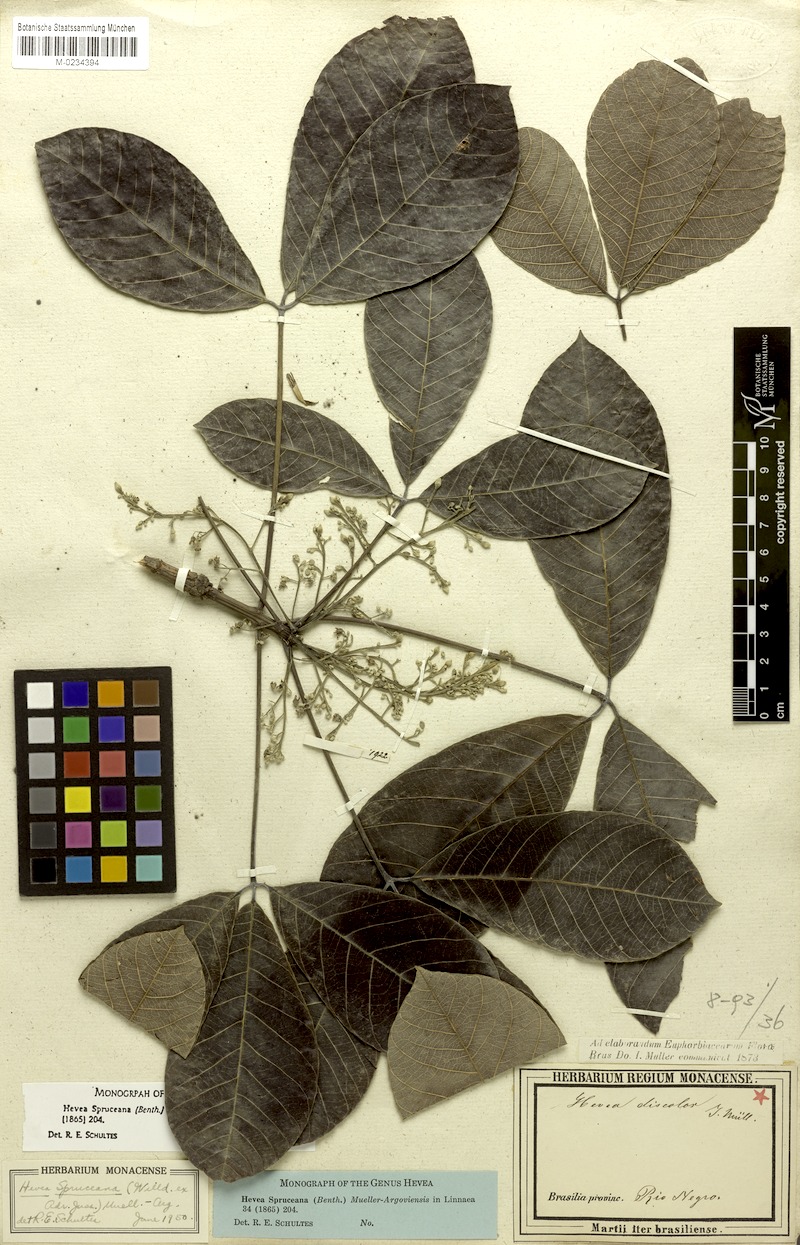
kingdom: Plantae
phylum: Tracheophyta
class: Magnoliopsida
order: Malpighiales
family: Euphorbiaceae
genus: Hevea
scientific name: Hevea spruceana
